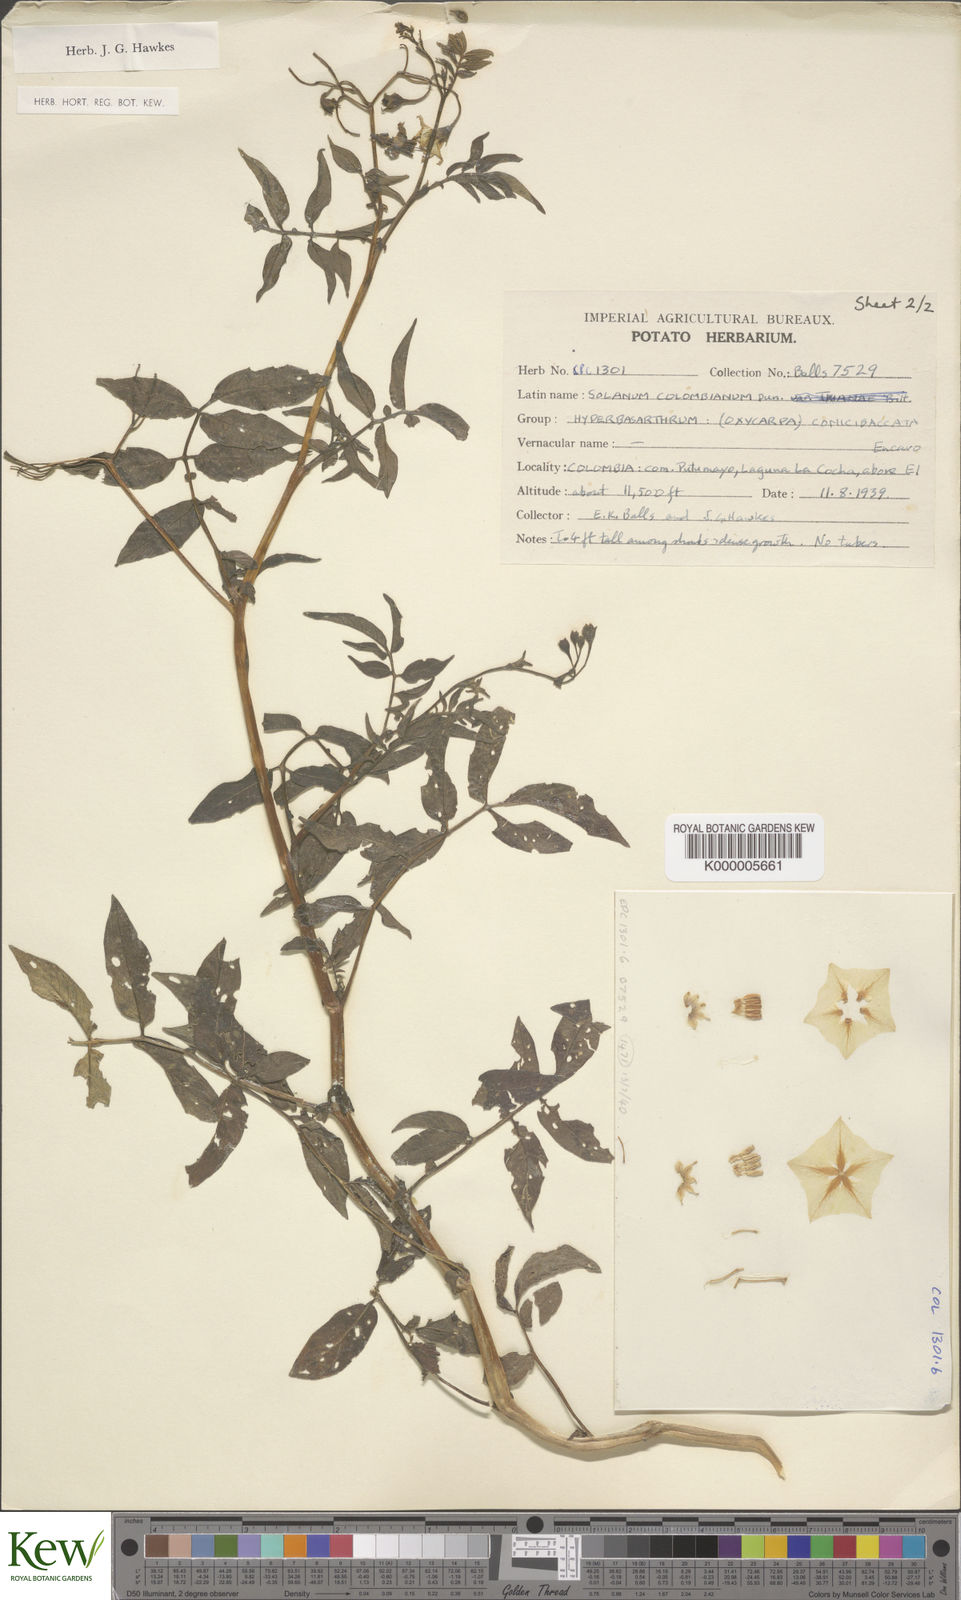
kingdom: Plantae
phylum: Tracheophyta
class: Magnoliopsida
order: Solanales
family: Solanaceae
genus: Solanum
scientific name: Solanum colombianum
